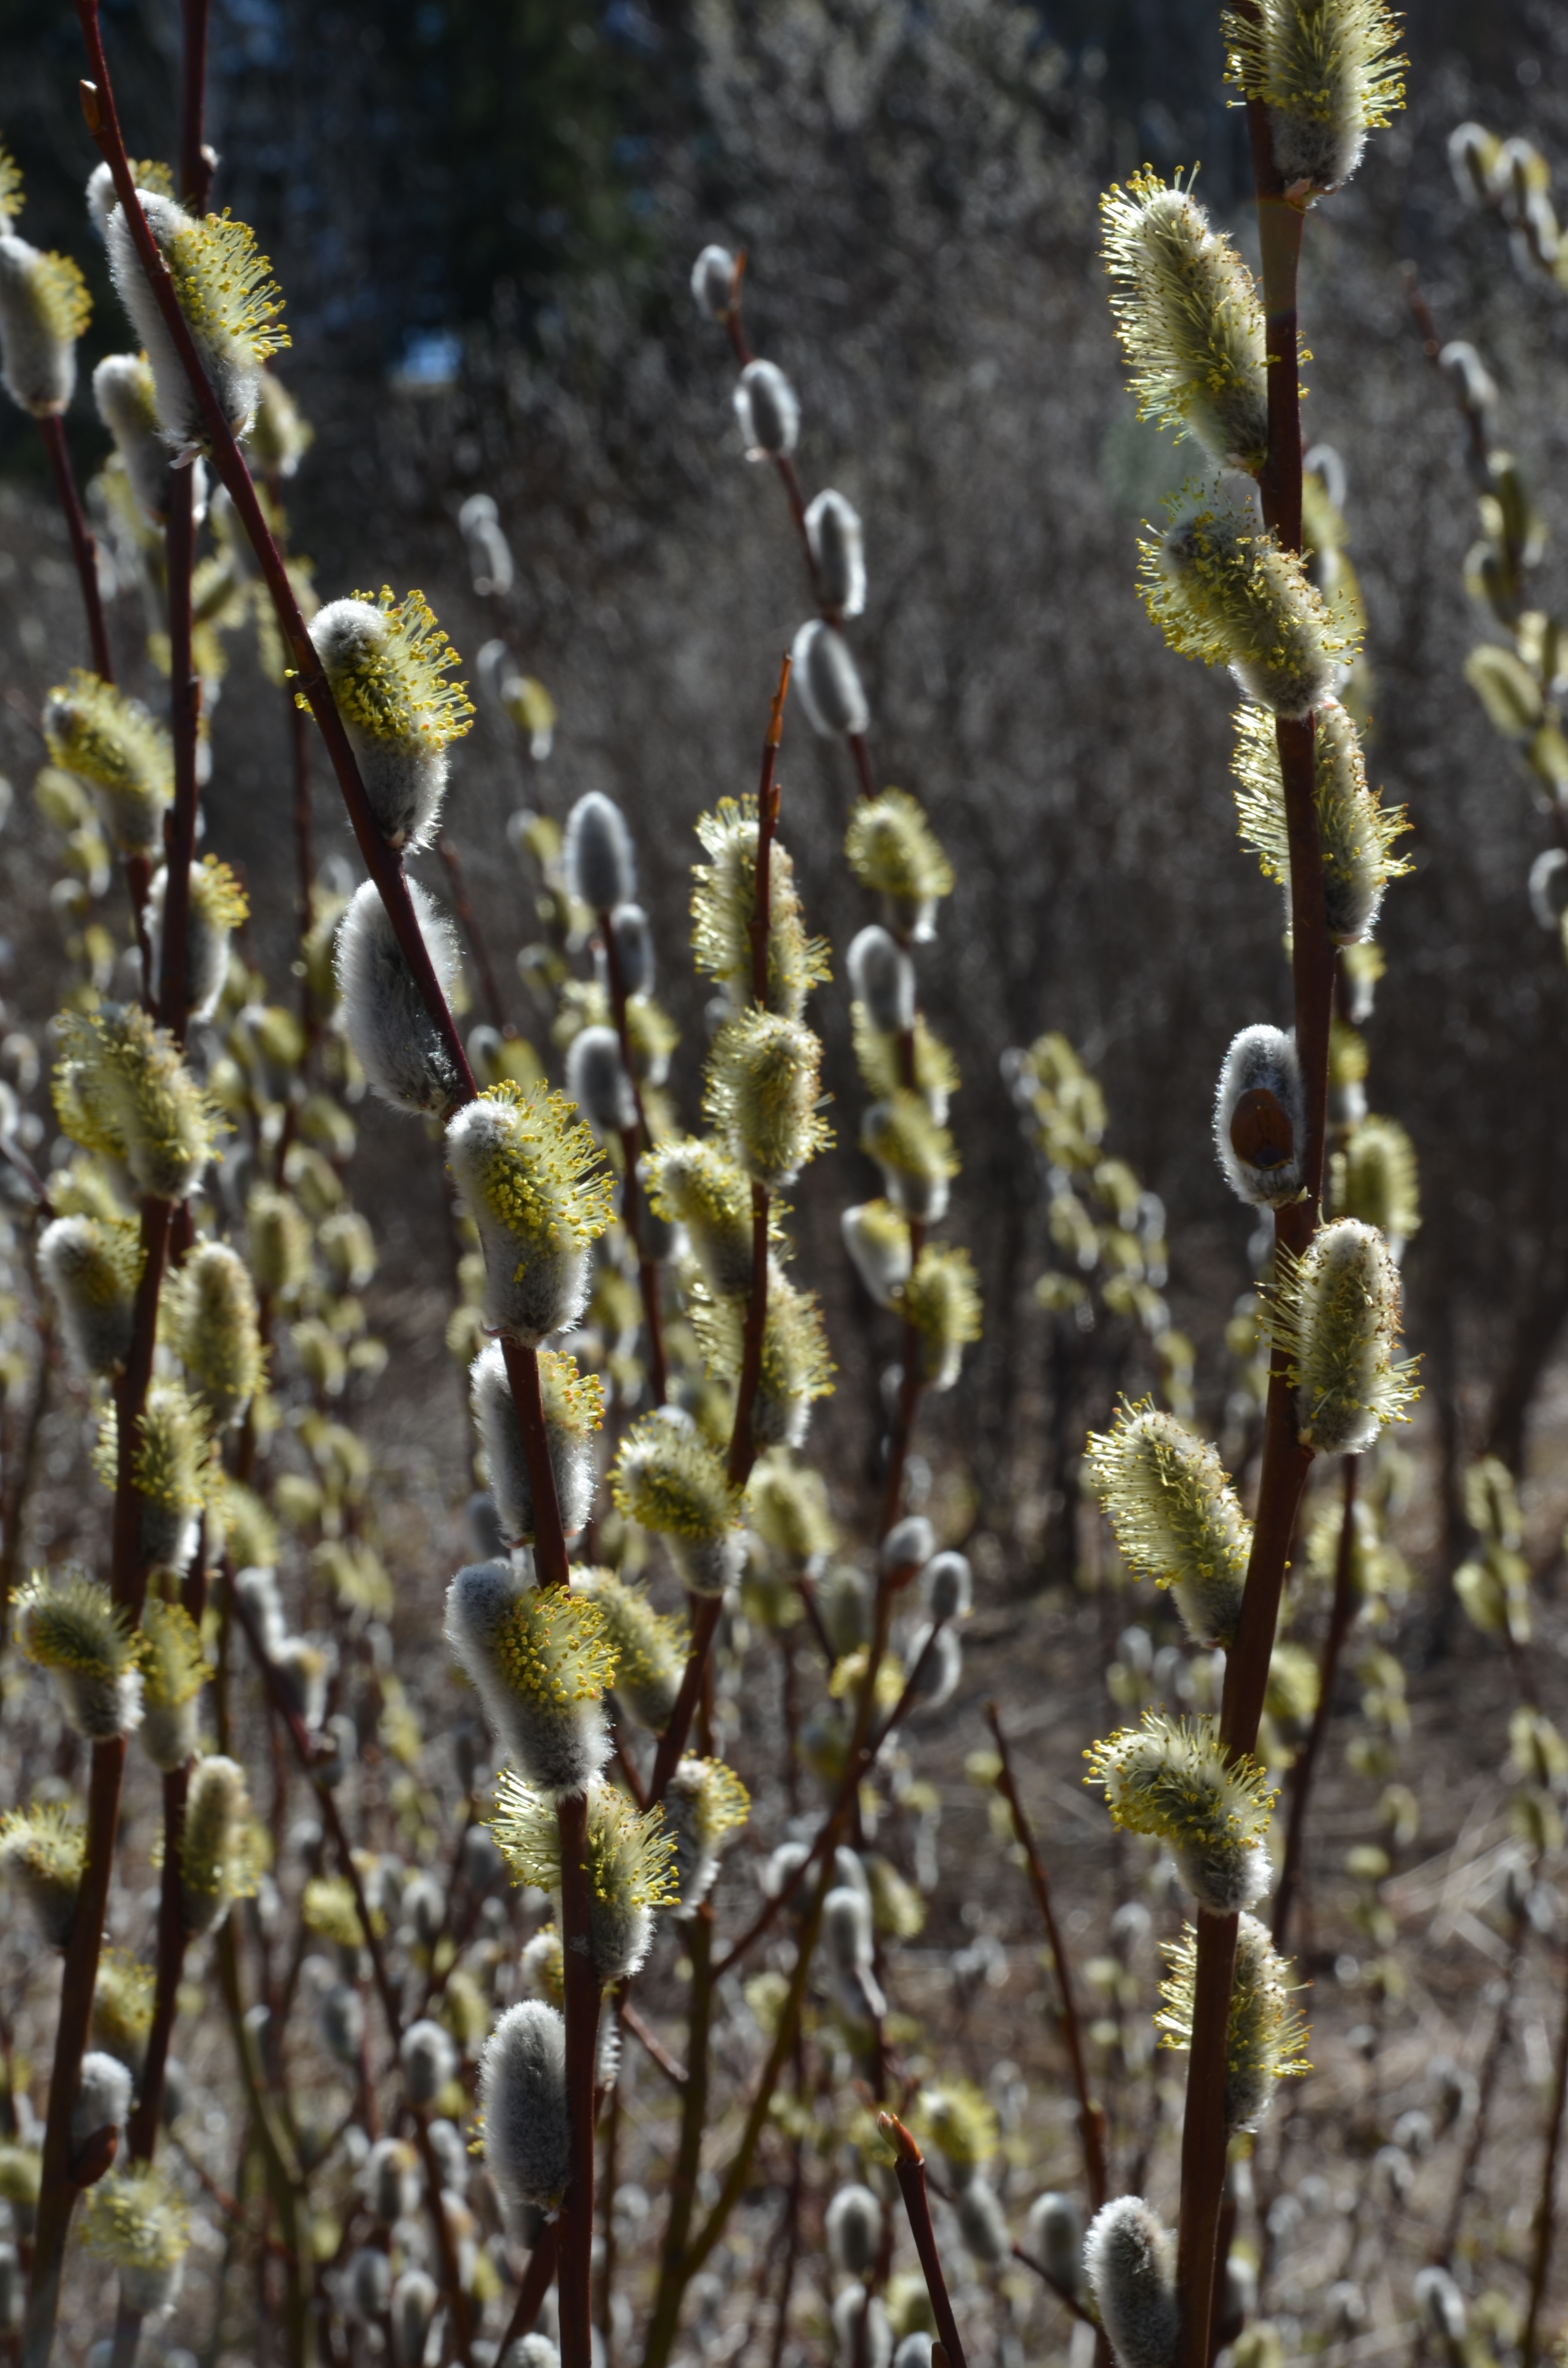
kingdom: Plantae
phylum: Tracheophyta
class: Magnoliopsida
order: Malpighiales
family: Salicaceae
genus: Salix
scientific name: Salix
